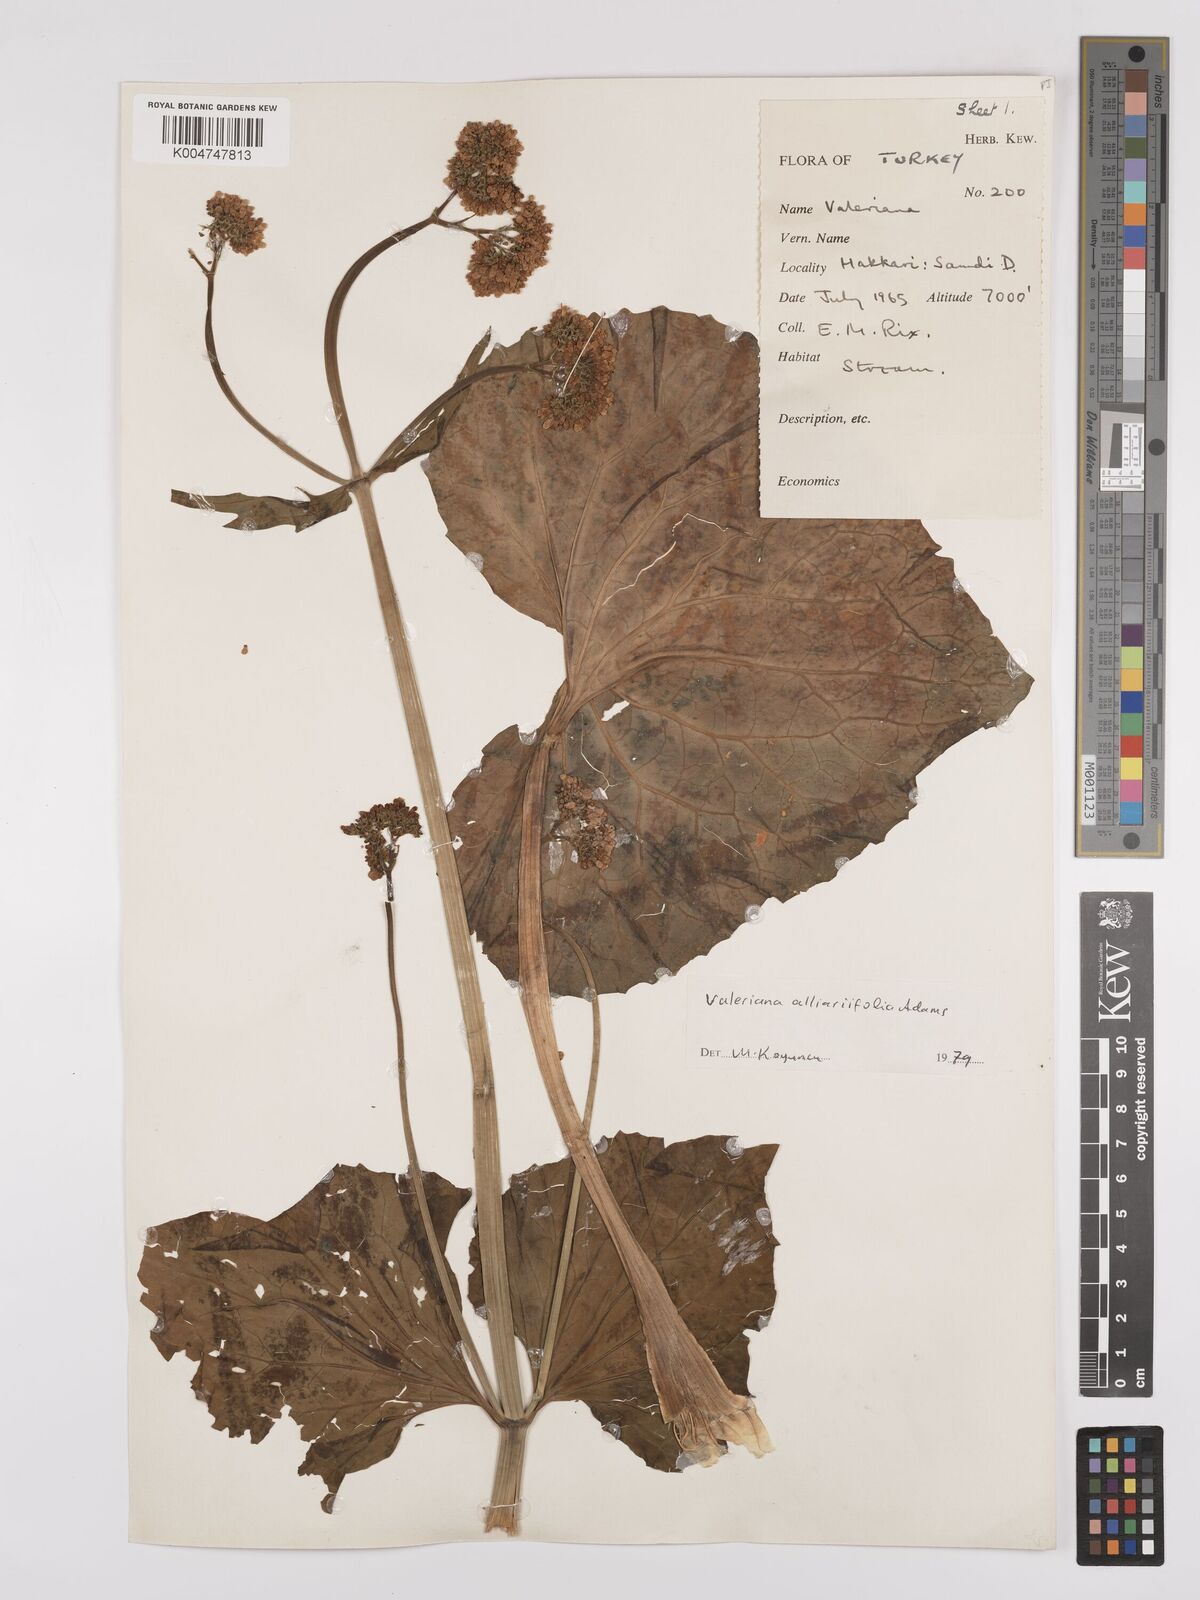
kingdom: Plantae
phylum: Tracheophyta
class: Magnoliopsida
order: Dipsacales
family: Caprifoliaceae
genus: Valeriana
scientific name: Valeriana
